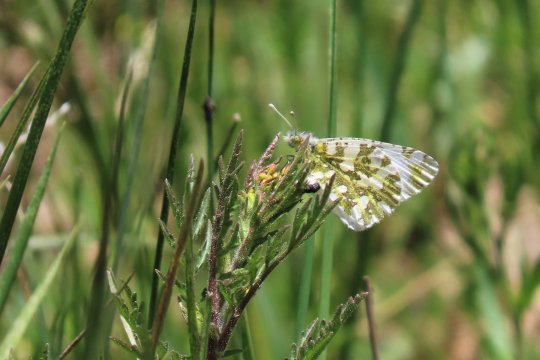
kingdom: Animalia
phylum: Arthropoda
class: Insecta
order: Lepidoptera
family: Pieridae
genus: Euchloe
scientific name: Euchloe ausonides
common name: Large Marble
